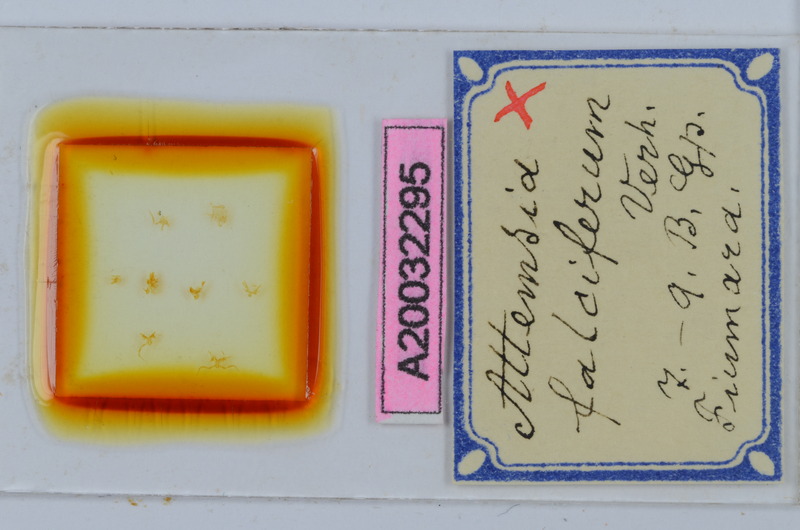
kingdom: Animalia
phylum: Arthropoda
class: Diplopoda
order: Chordeumatida
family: Attemsiidae
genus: Attemsia
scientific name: Attemsia falcifera
